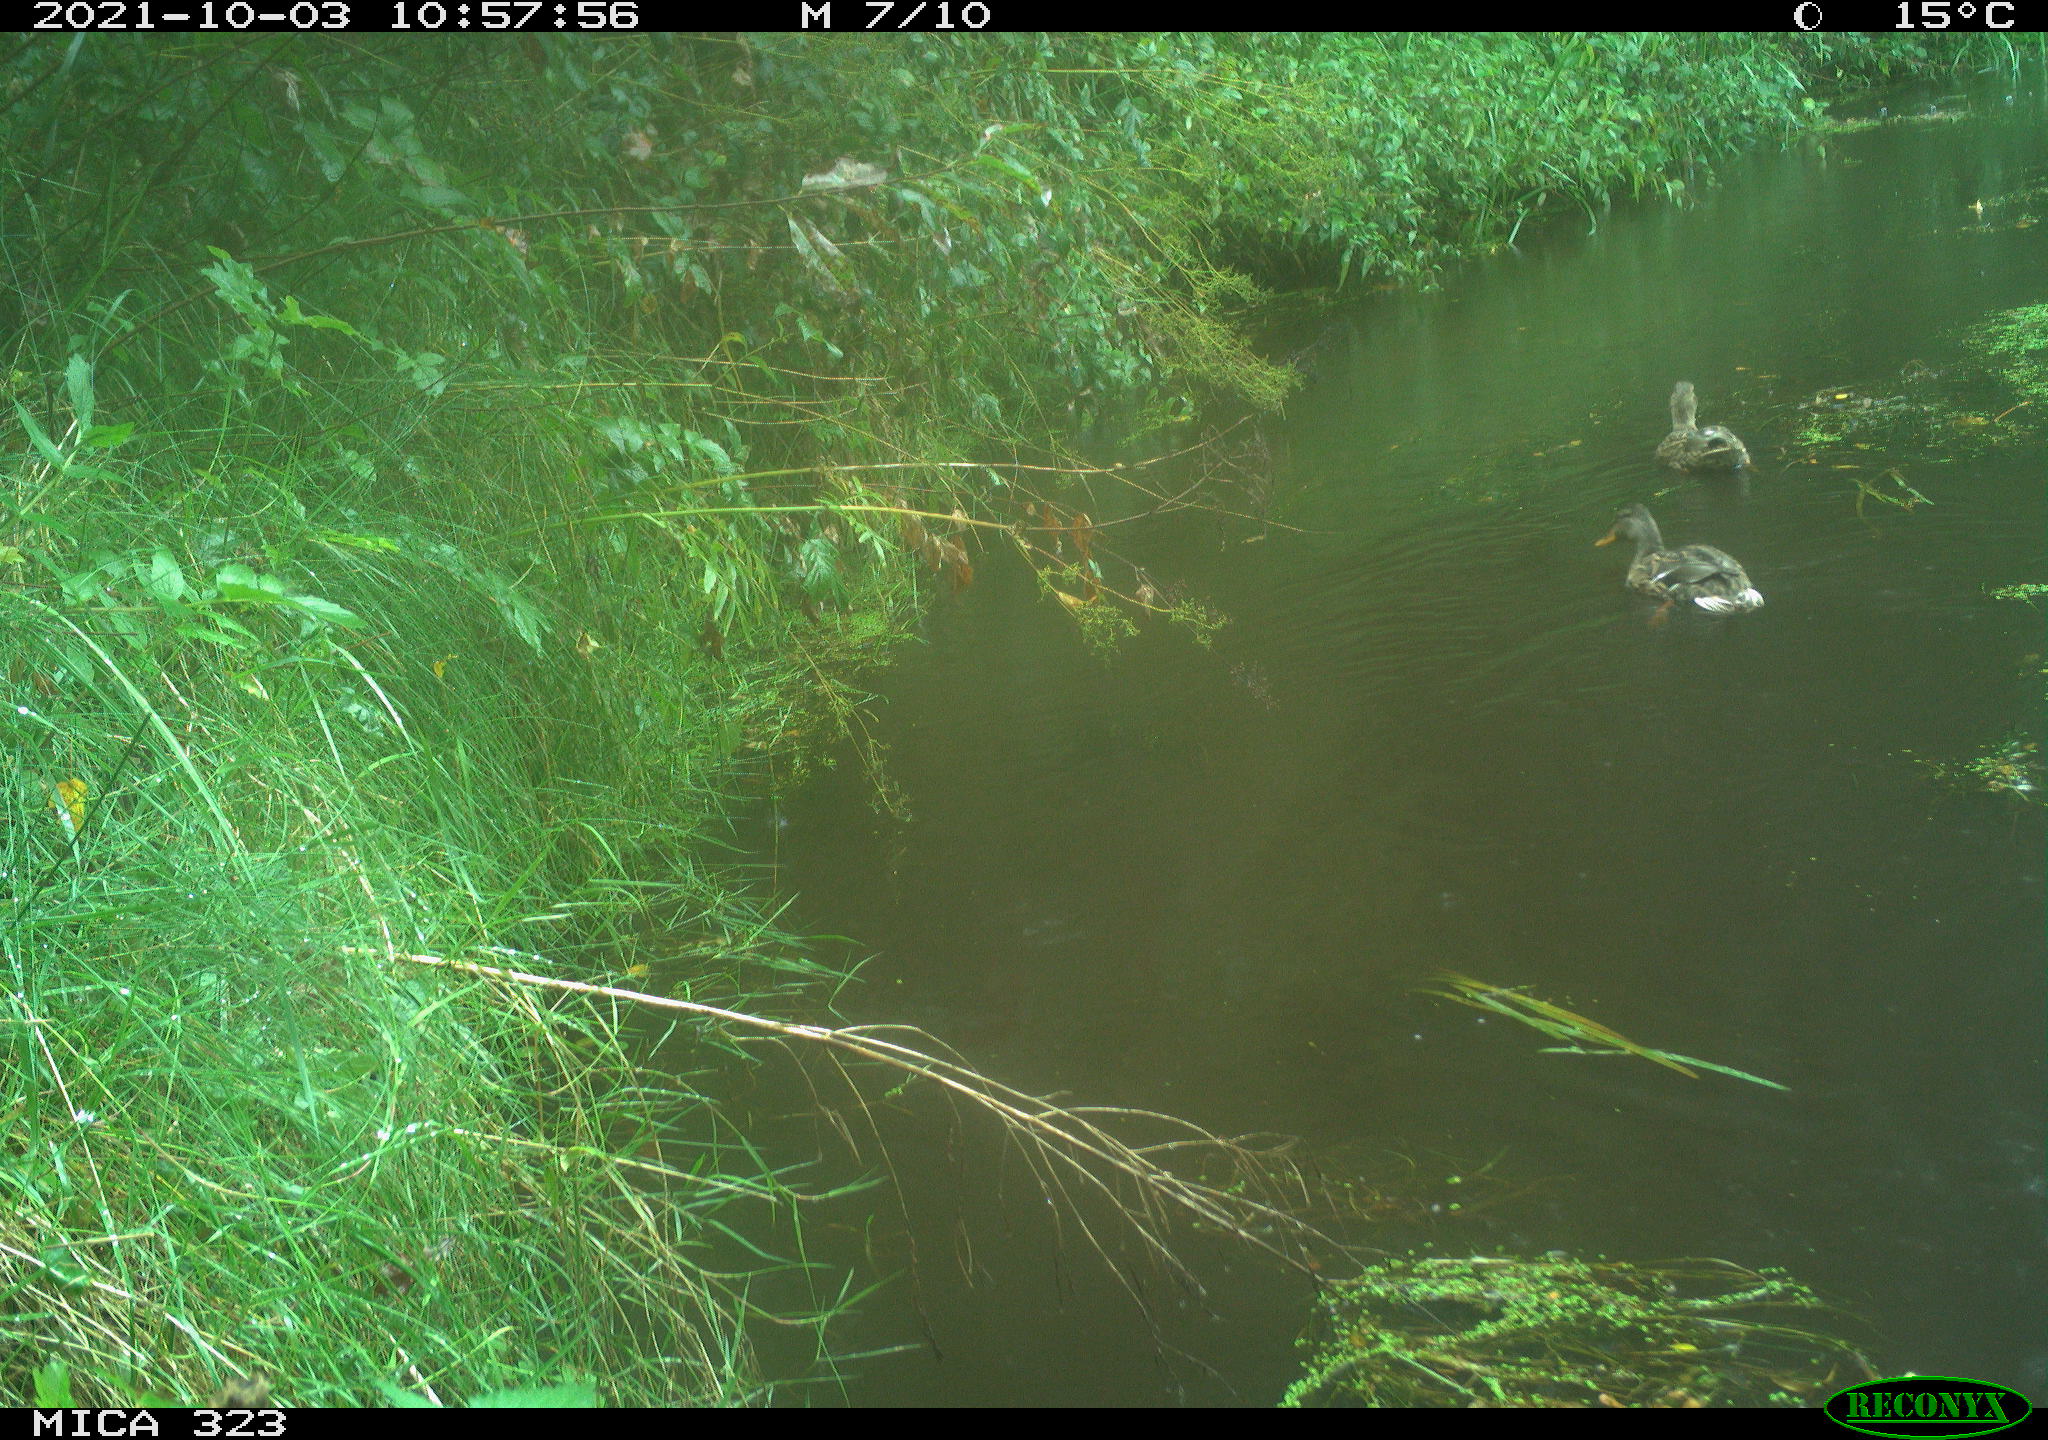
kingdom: Animalia
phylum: Chordata
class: Aves
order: Anseriformes
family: Anatidae
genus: Anas
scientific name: Anas platyrhynchos
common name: Mallard
